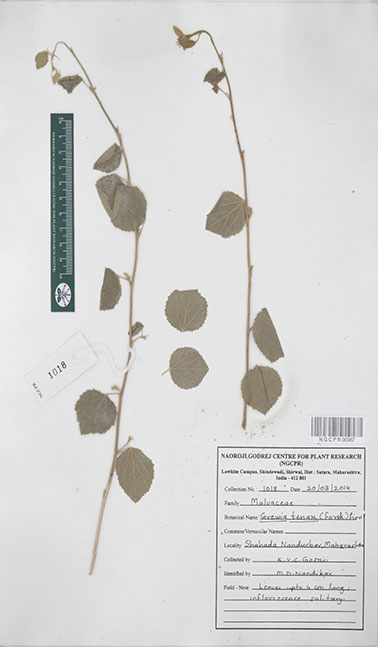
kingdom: Plantae
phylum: Tracheophyta
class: Magnoliopsida
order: Malvales
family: Malvaceae
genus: Grewia
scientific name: Grewia tenax
